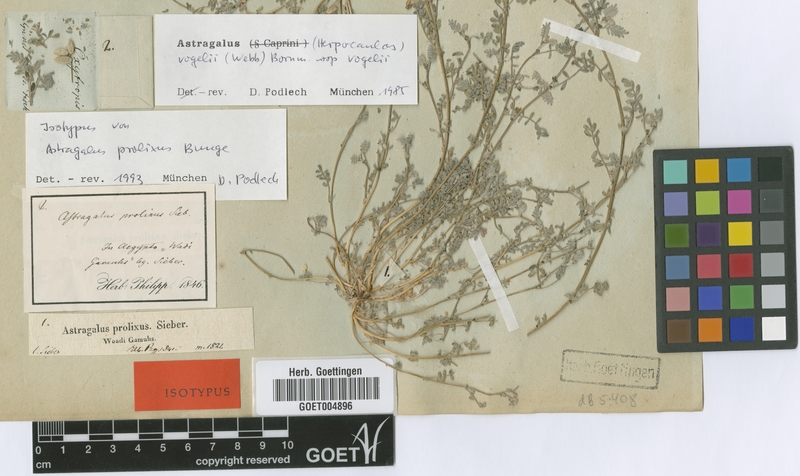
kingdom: Plantae
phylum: Tracheophyta
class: Magnoliopsida
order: Fabales
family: Fabaceae
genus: Astragalus
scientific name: Astragalus vogelii
